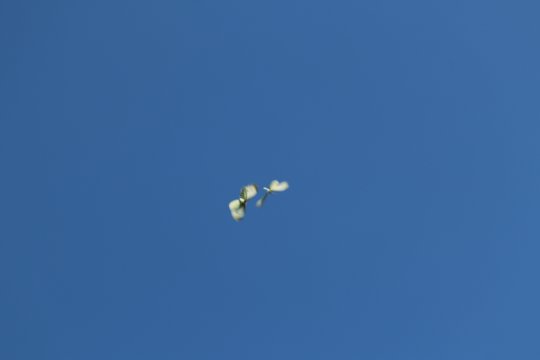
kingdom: Animalia
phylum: Arthropoda
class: Insecta
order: Lepidoptera
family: Pieridae
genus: Pieris
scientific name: Pieris rapae
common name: Cabbage White
